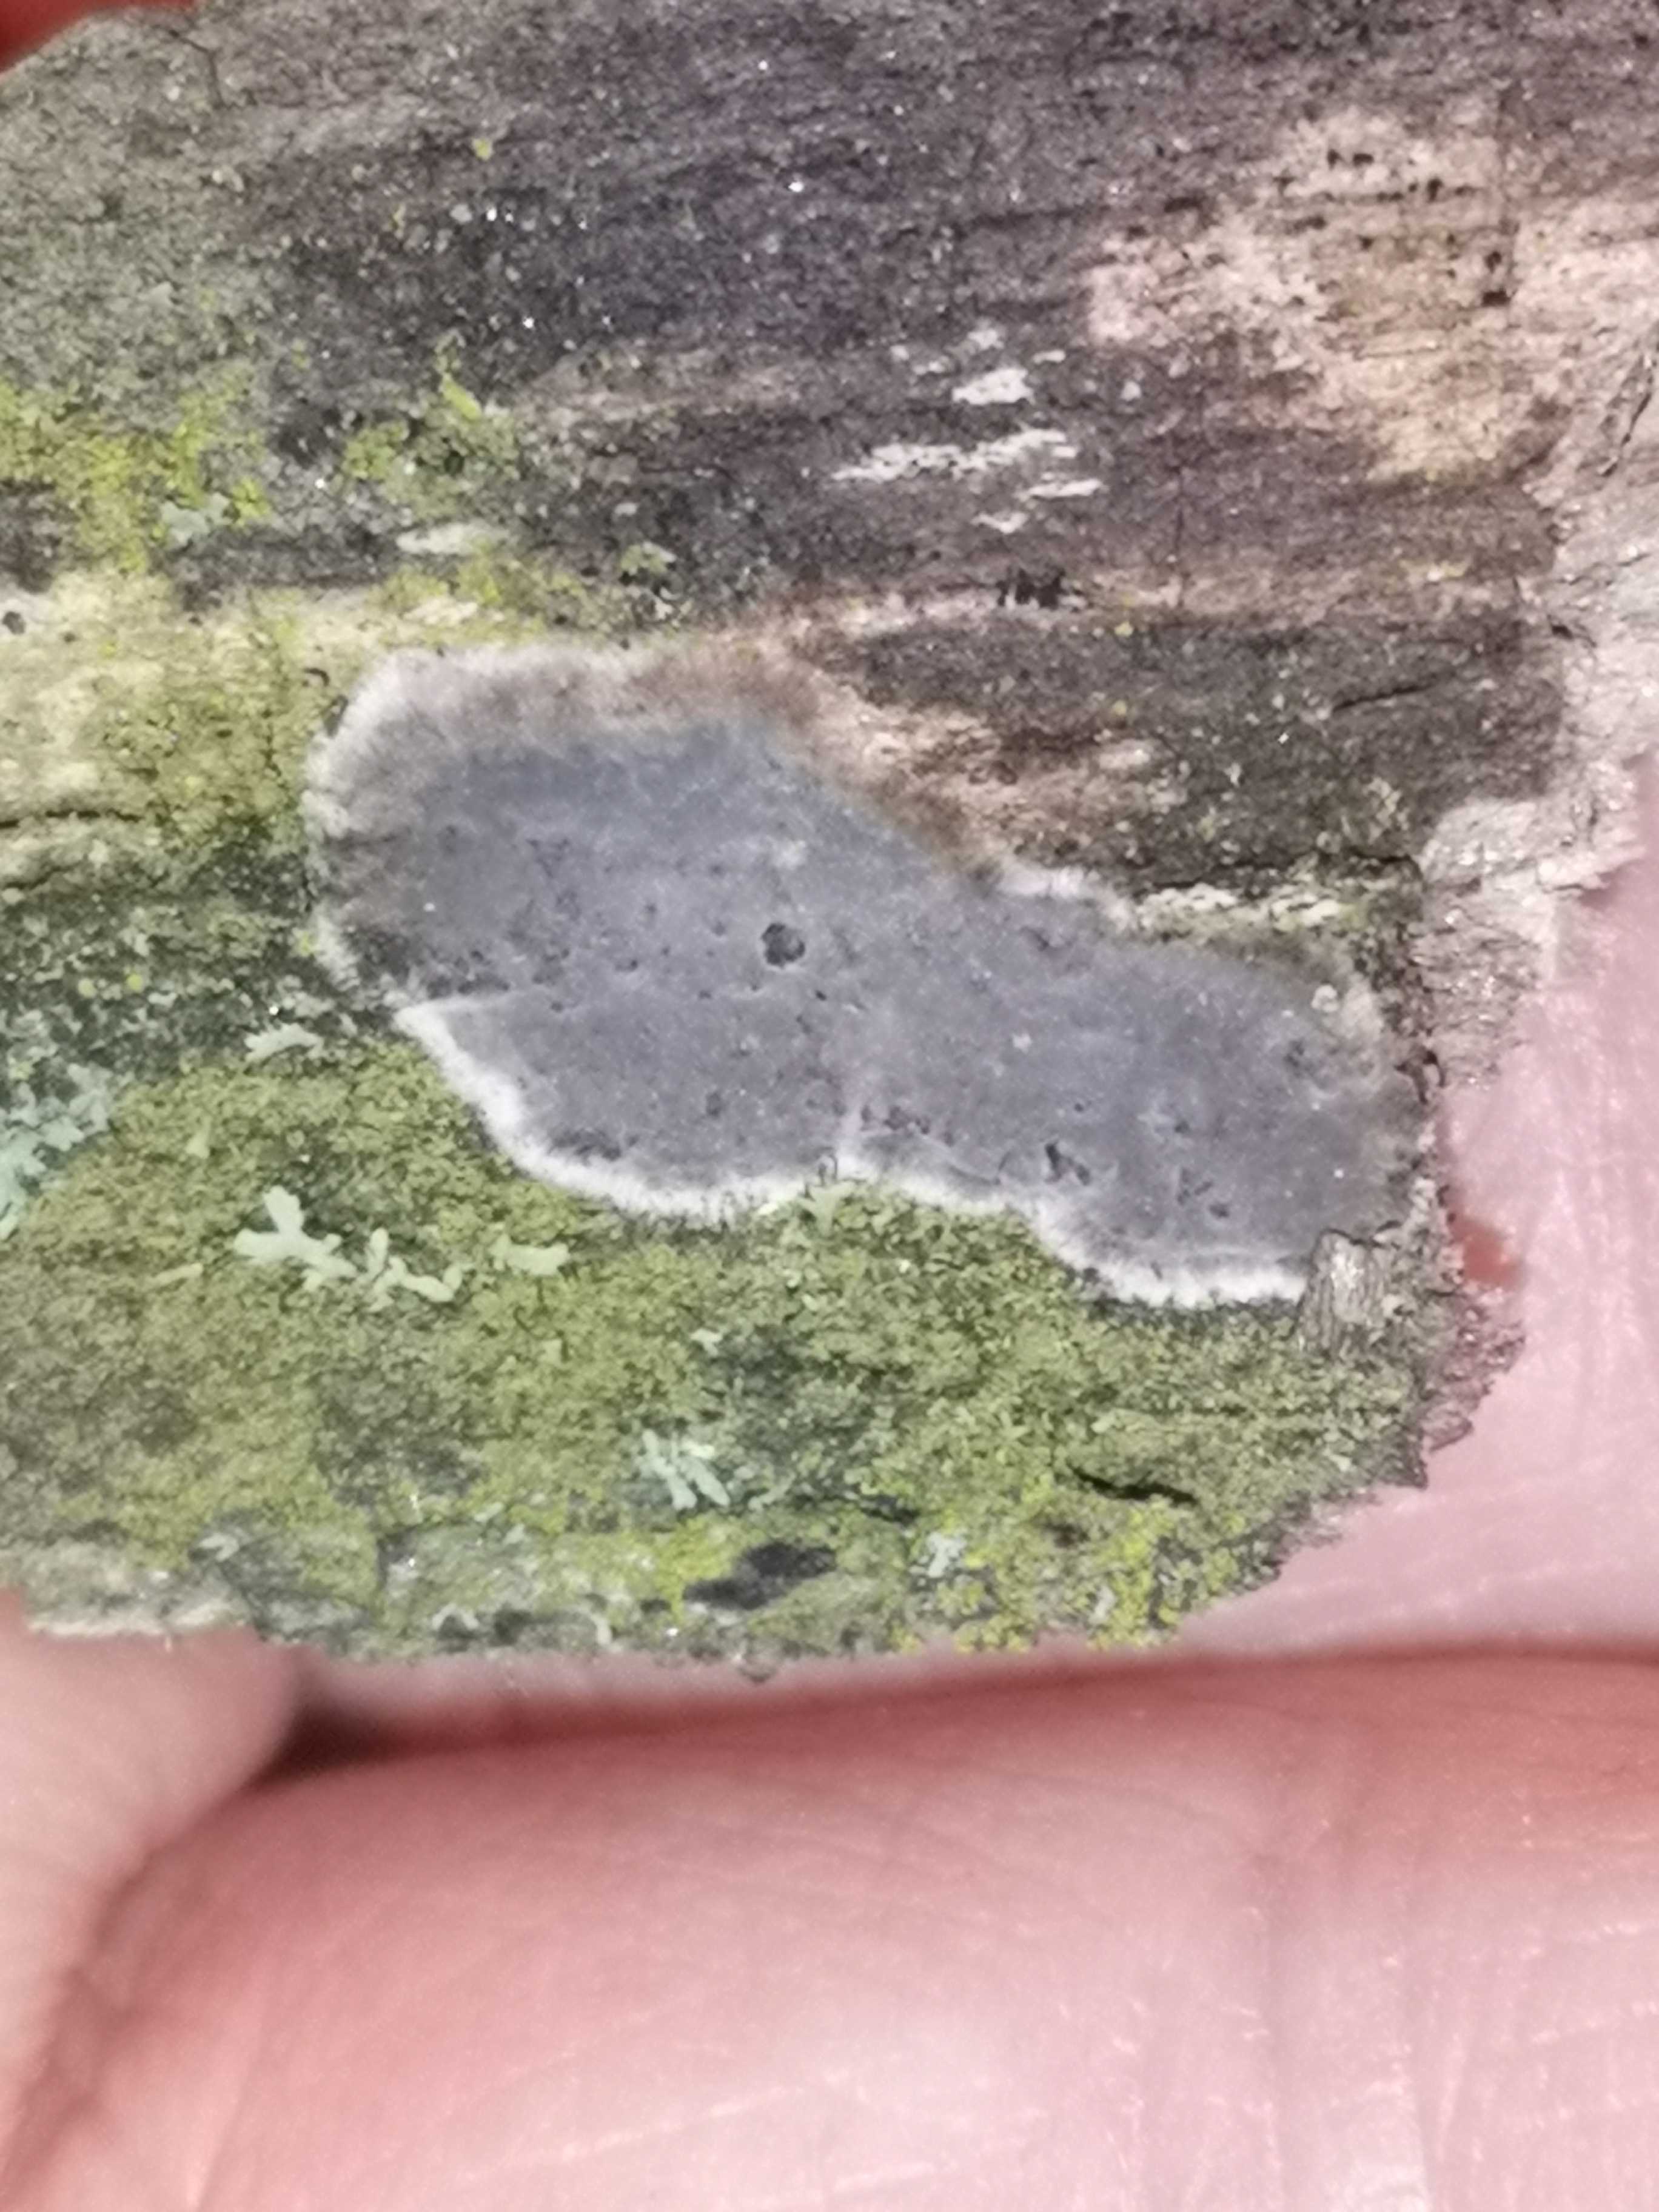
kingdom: Fungi
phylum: Basidiomycota
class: Agaricomycetes
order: Russulales
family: Peniophoraceae
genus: Peniophora
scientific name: Peniophora
